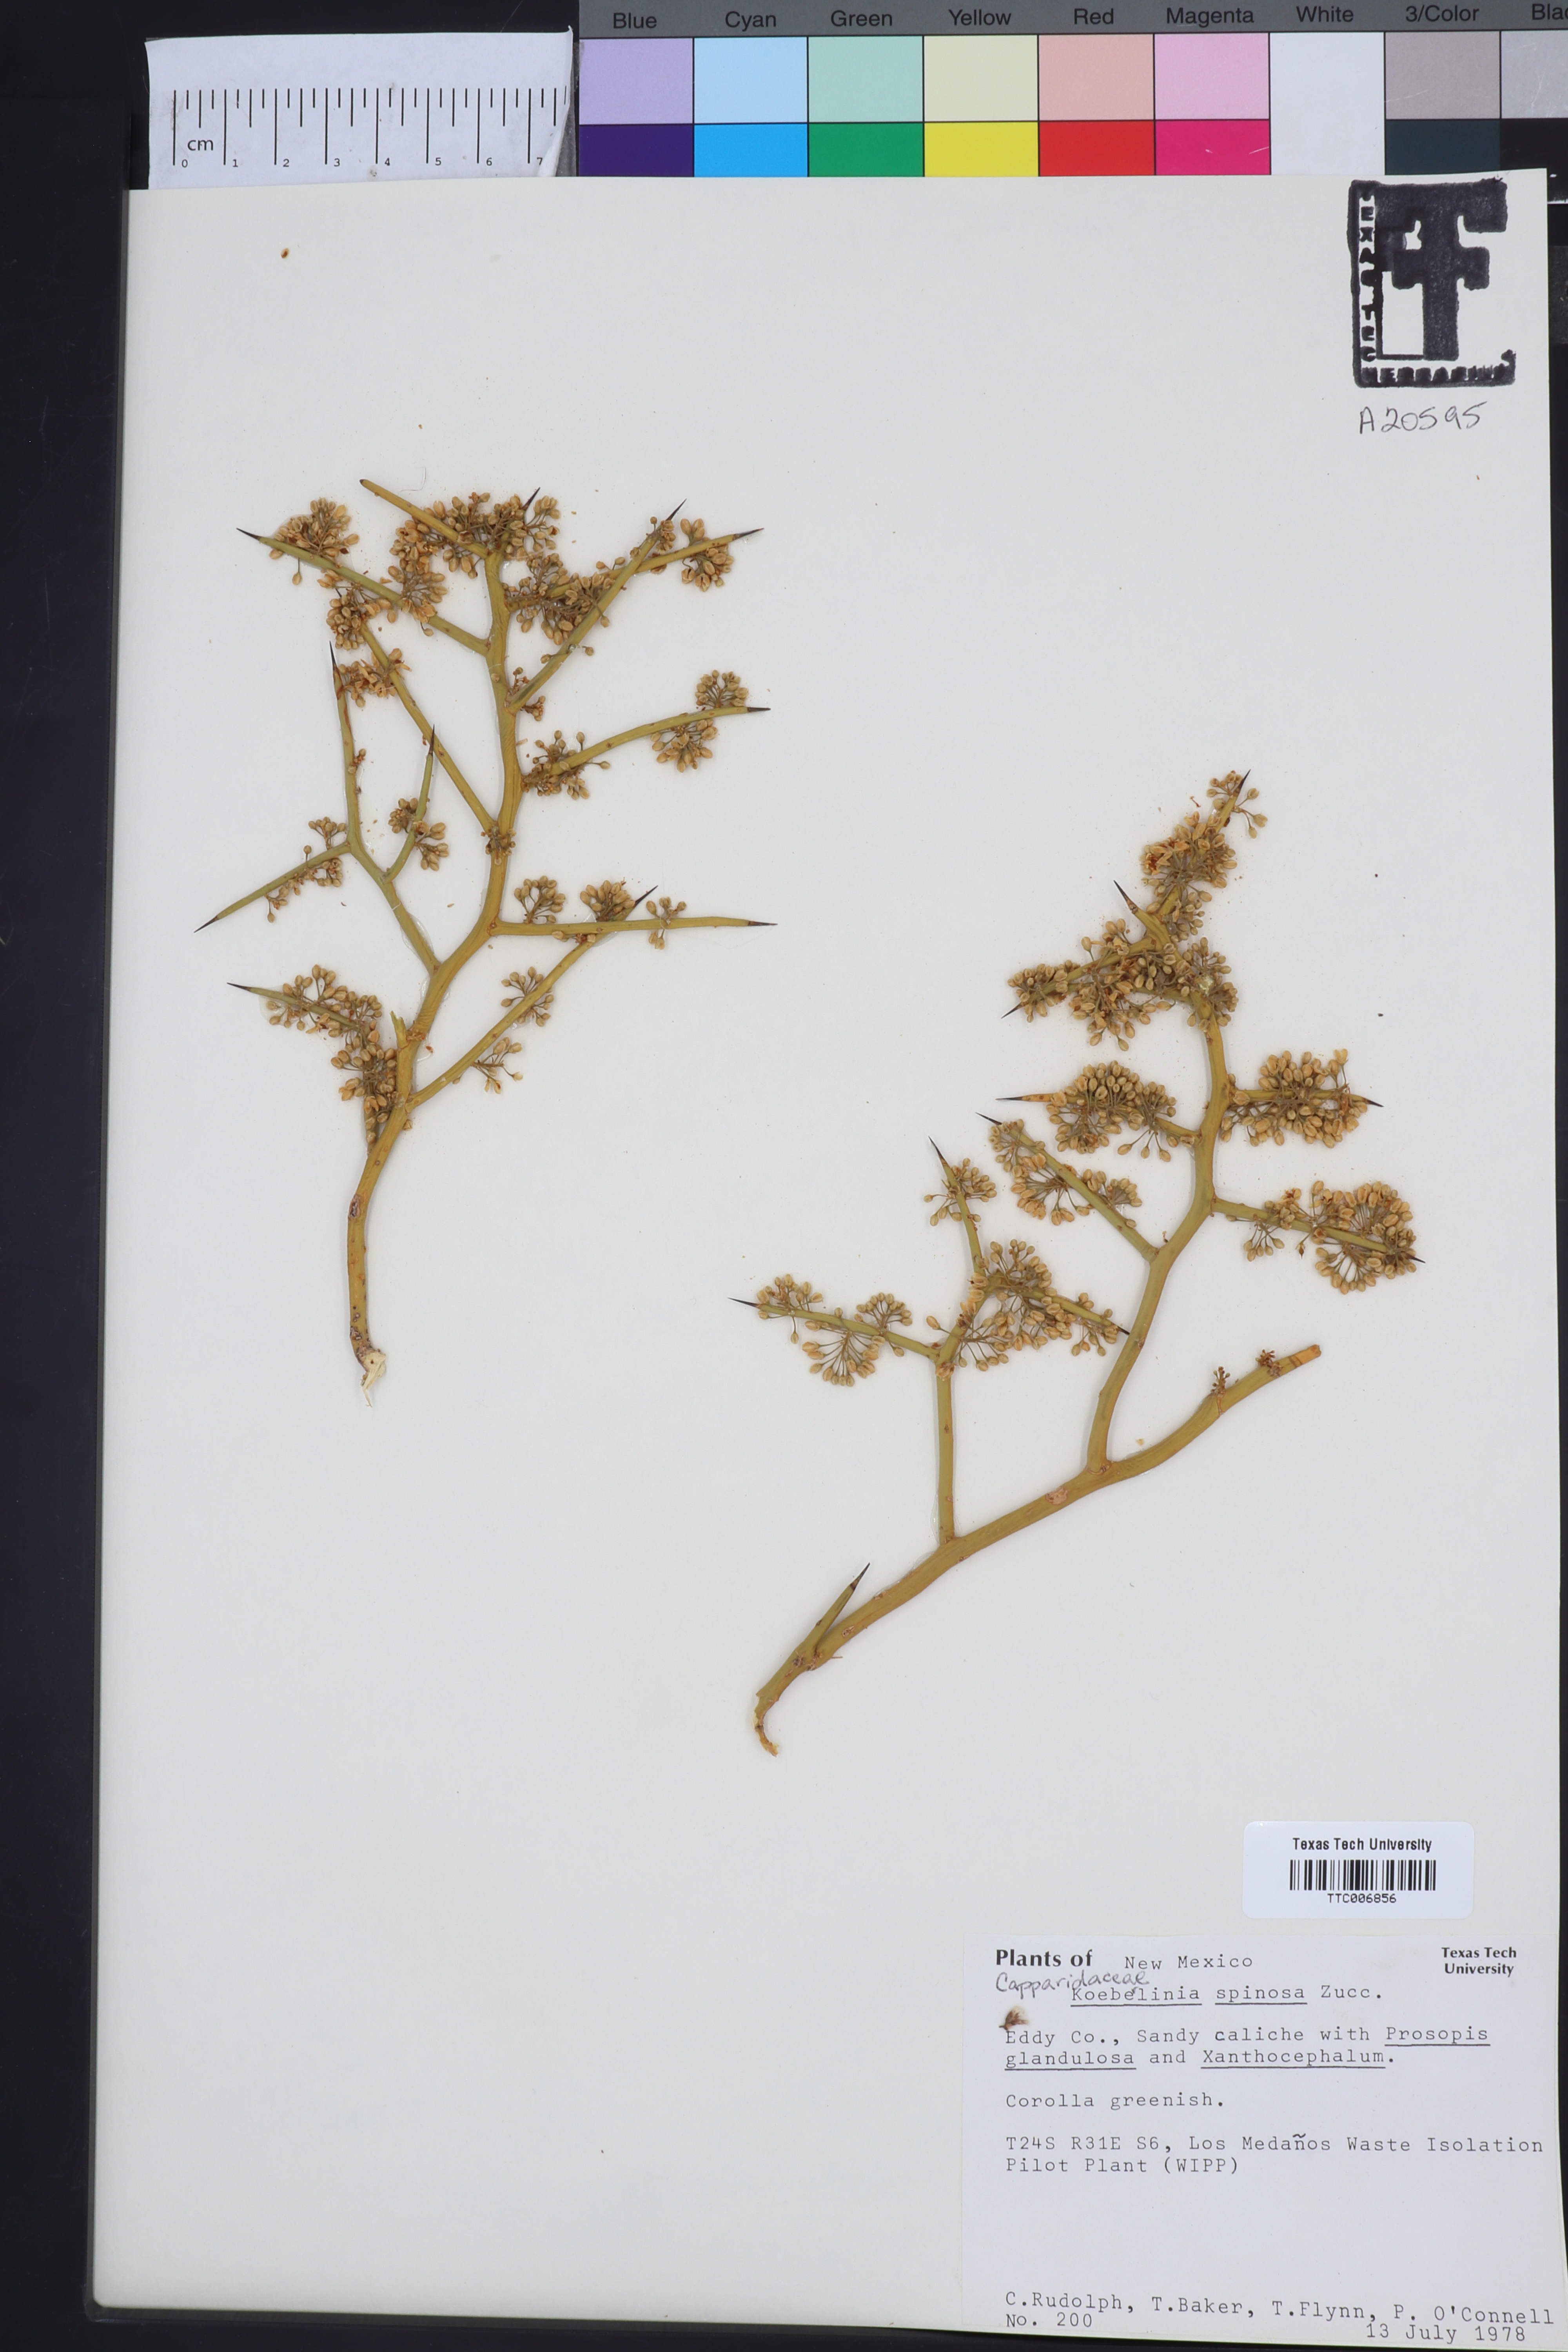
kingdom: Plantae
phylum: Tracheophyta
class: Magnoliopsida
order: Brassicales
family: Capparaceae
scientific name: Capparaceae
